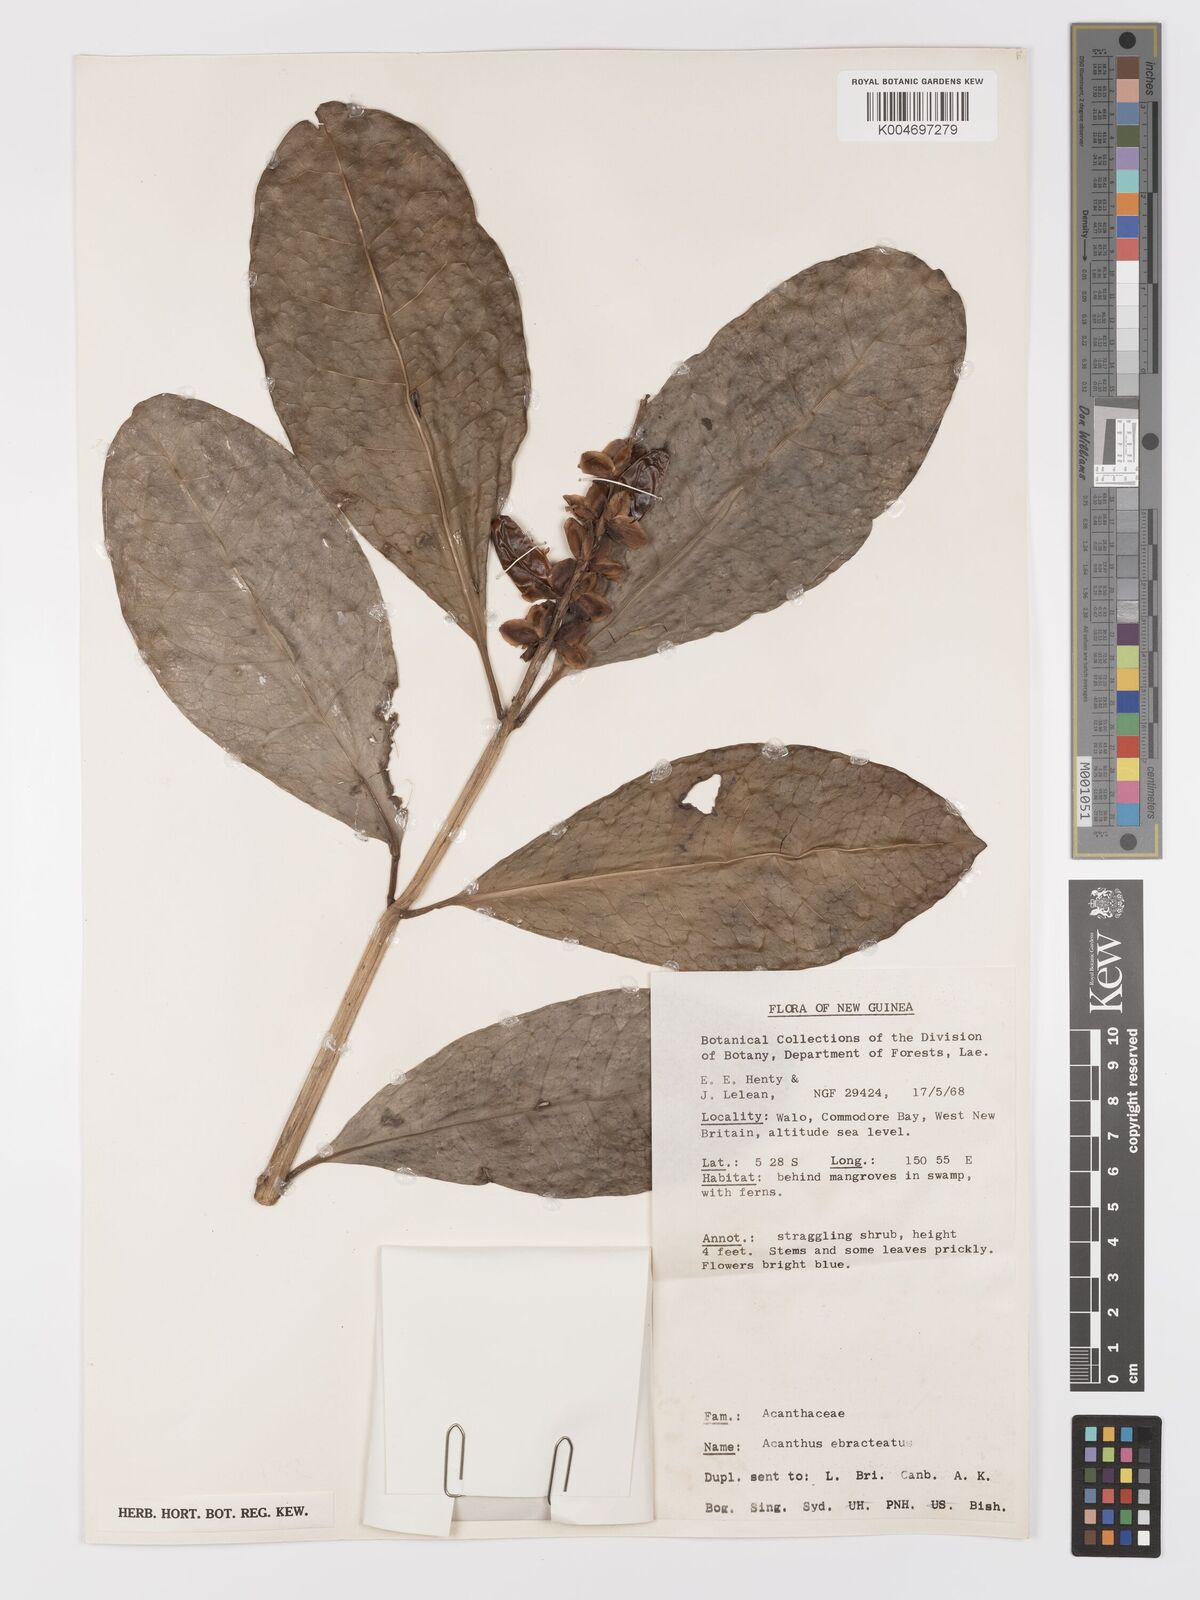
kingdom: Plantae
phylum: Tracheophyta
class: Magnoliopsida
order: Lamiales
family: Acanthaceae
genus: Acanthus
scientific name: Acanthus ebracteatus
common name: Acanthus
